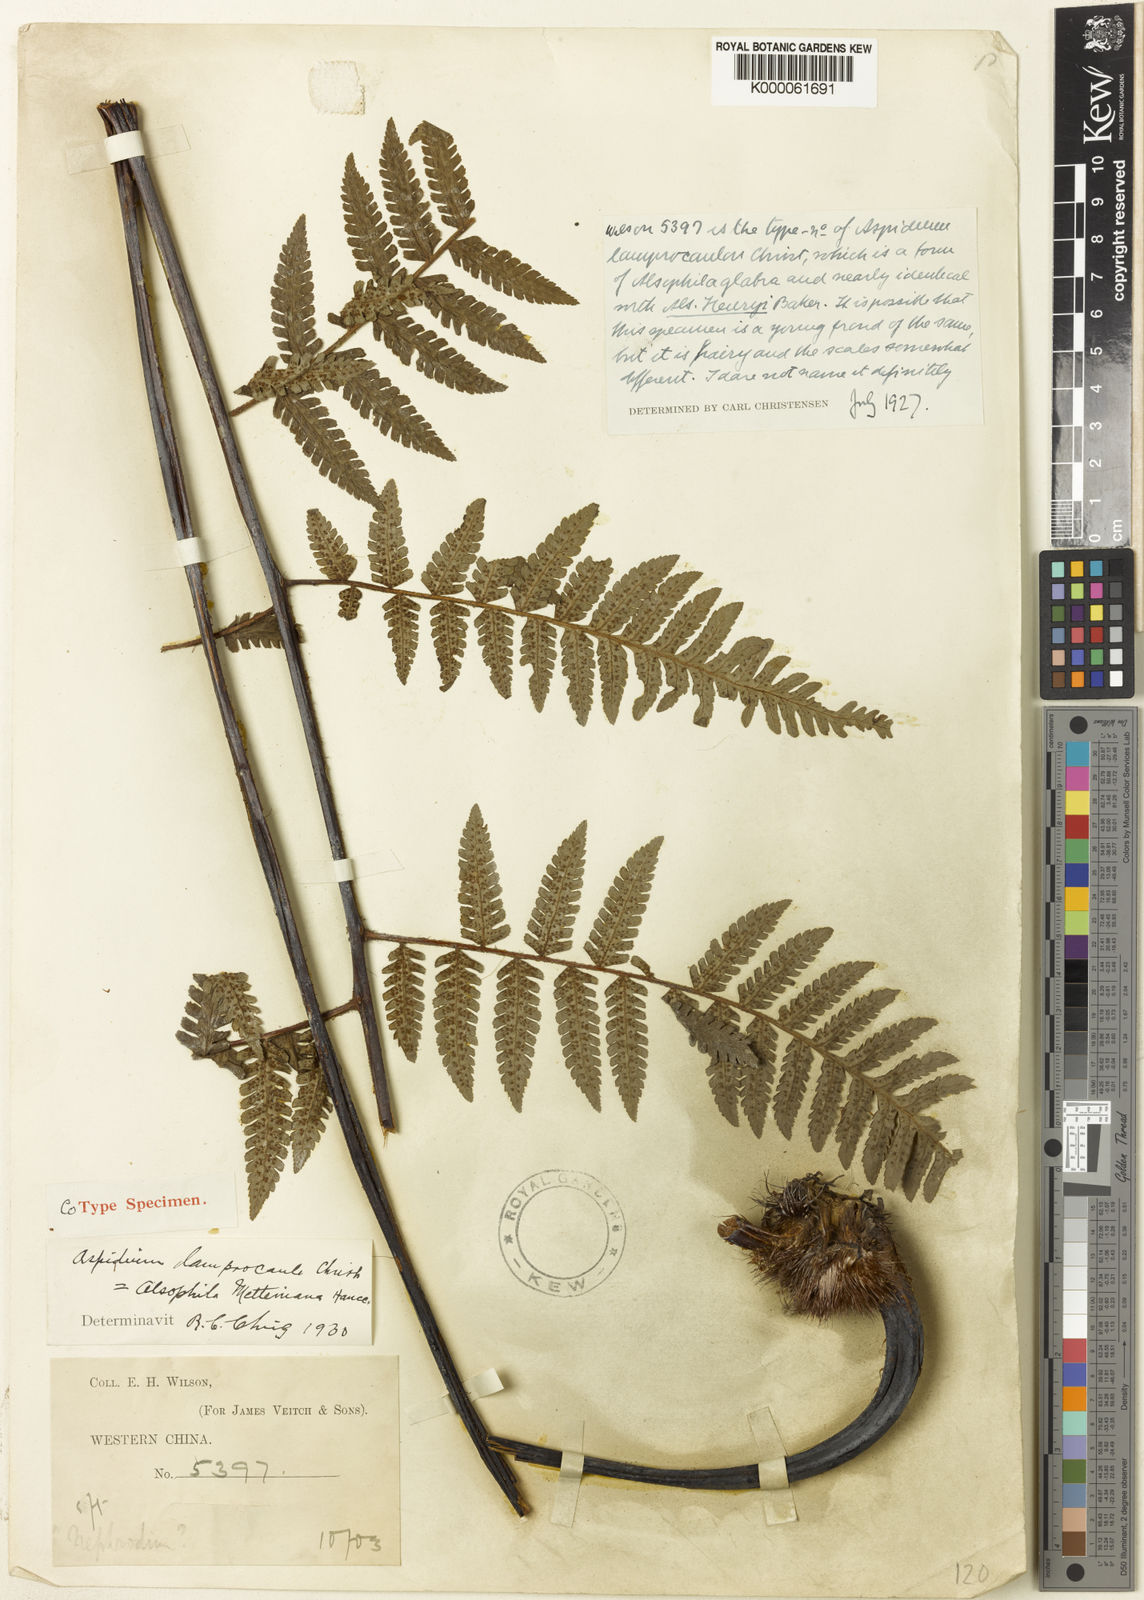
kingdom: Plantae
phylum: Tracheophyta
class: Polypodiopsida
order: Cyatheales
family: Cyatheaceae
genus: Gymnosphaera
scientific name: Gymnosphaera metteniana
